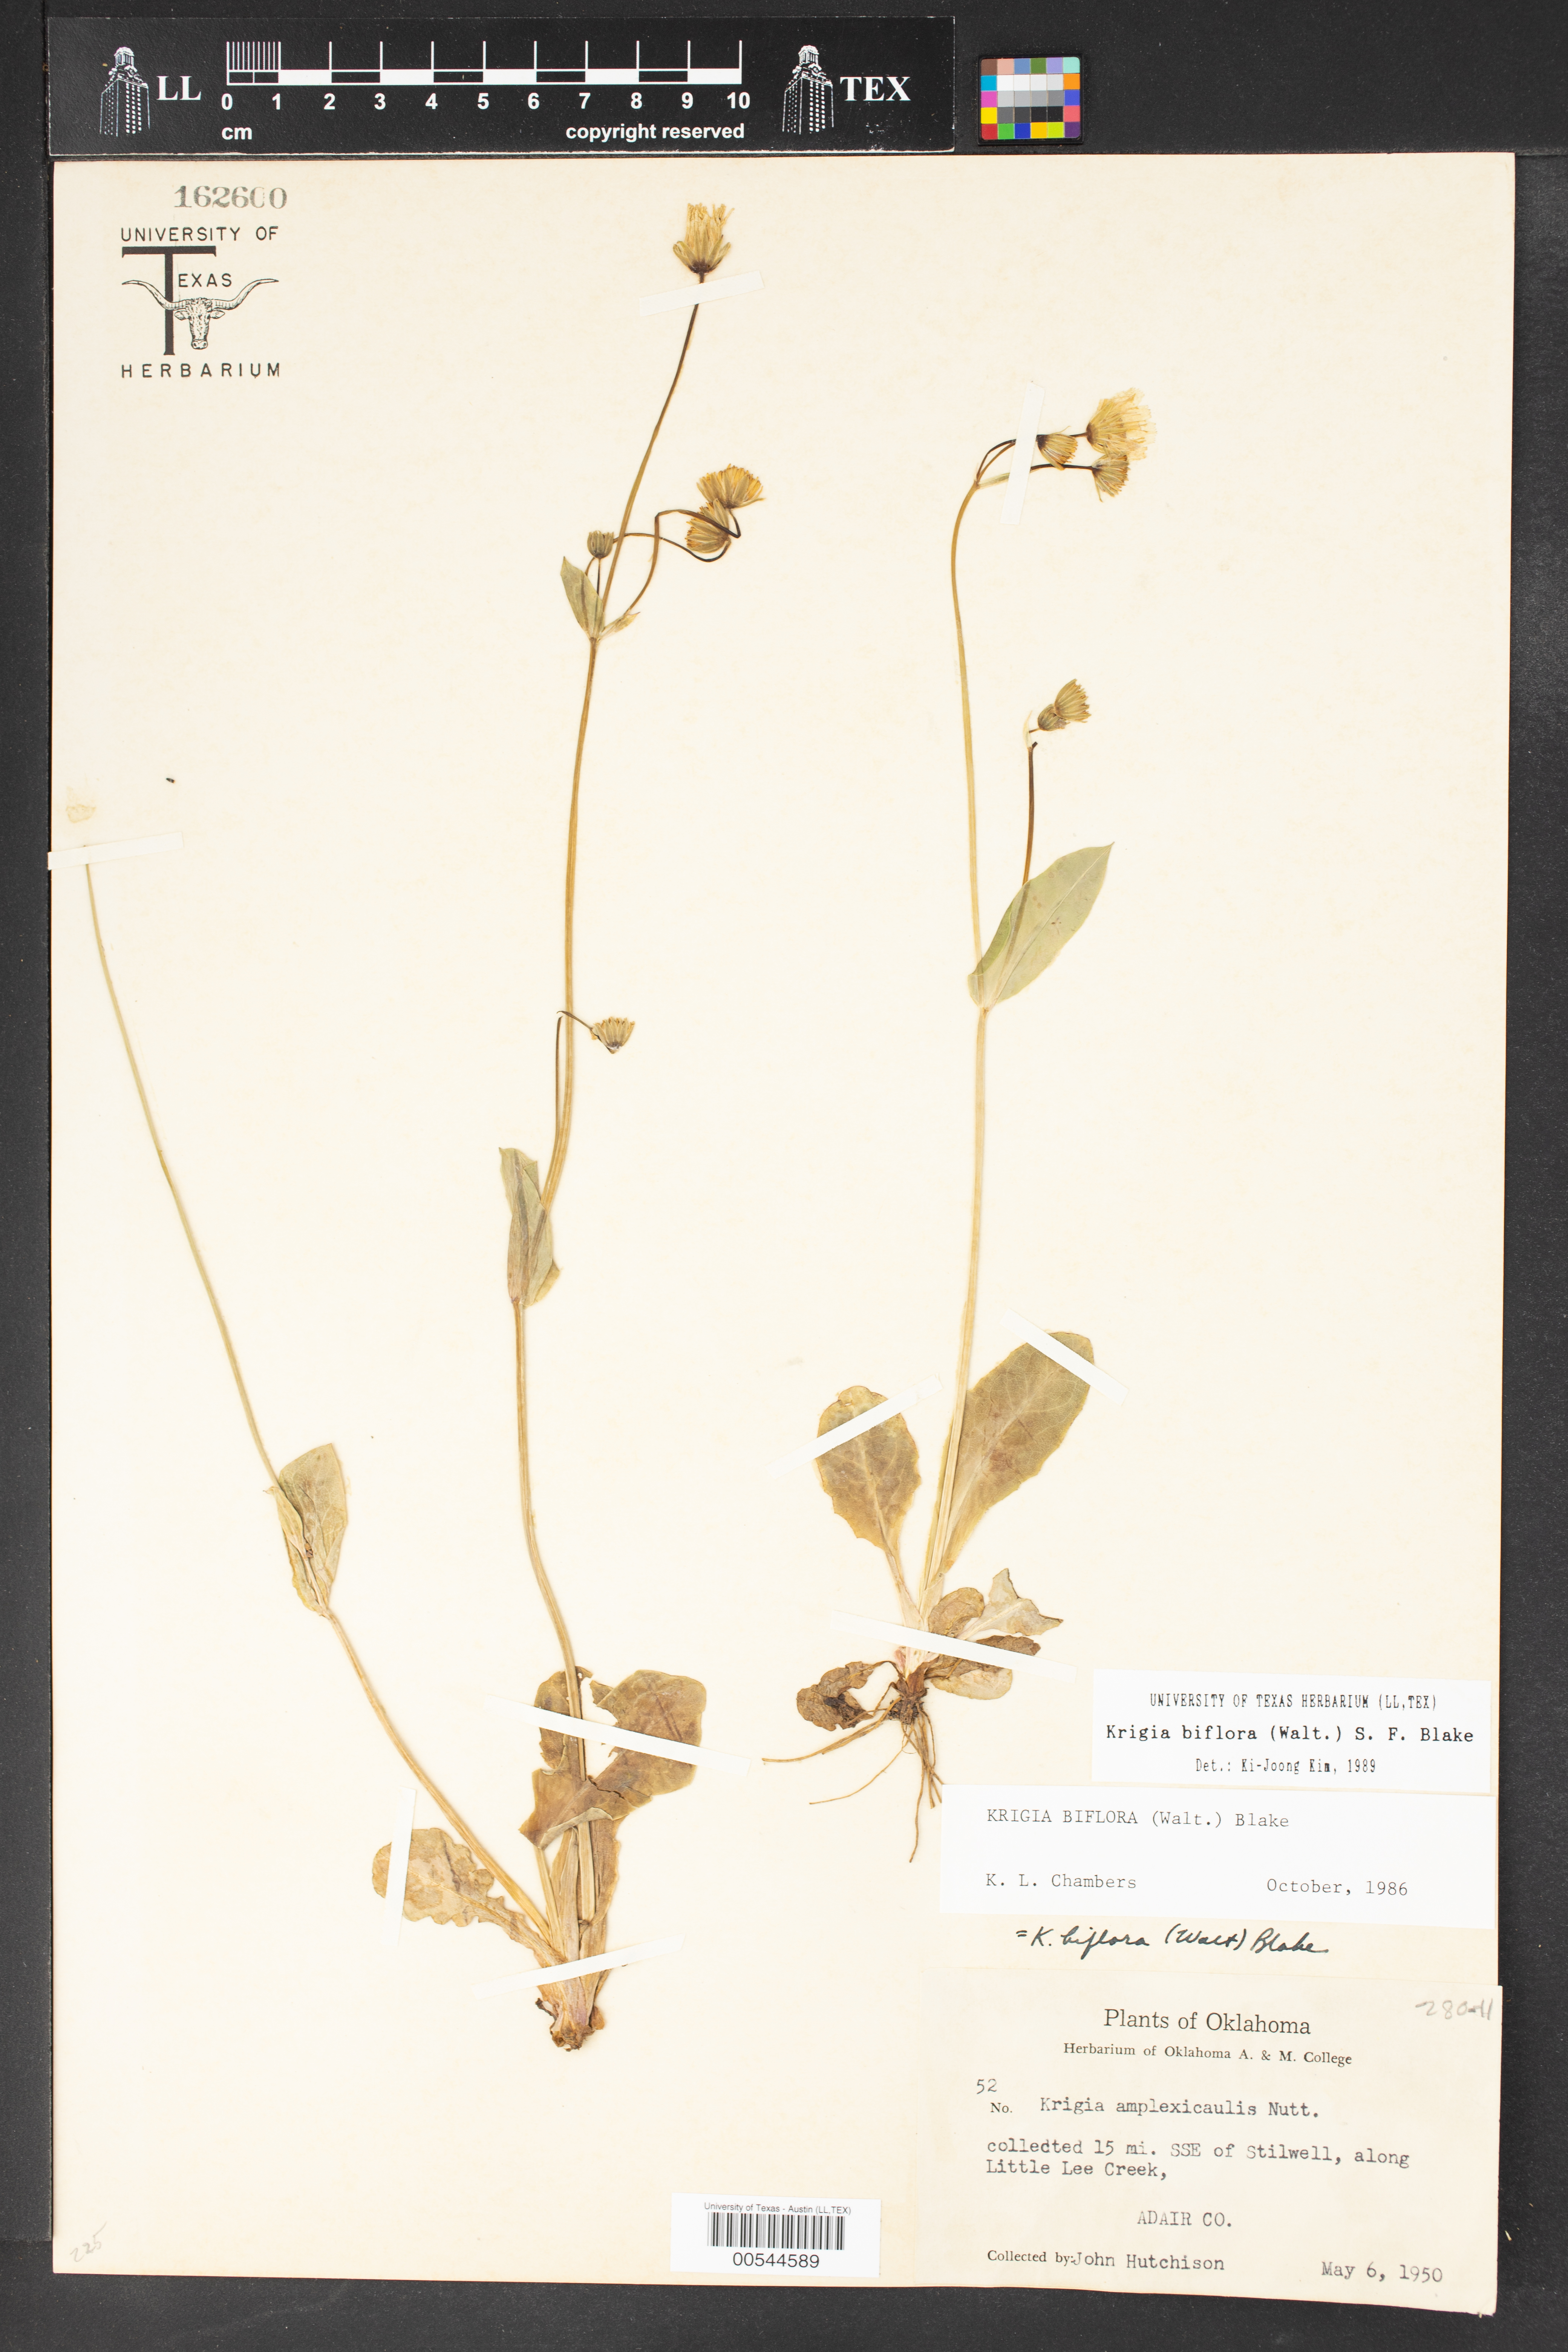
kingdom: Plantae
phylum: Tracheophyta
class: Magnoliopsida
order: Asterales
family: Asteraceae
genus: Krigia
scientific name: Krigia biflora
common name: Orange dwarf-dandelion
